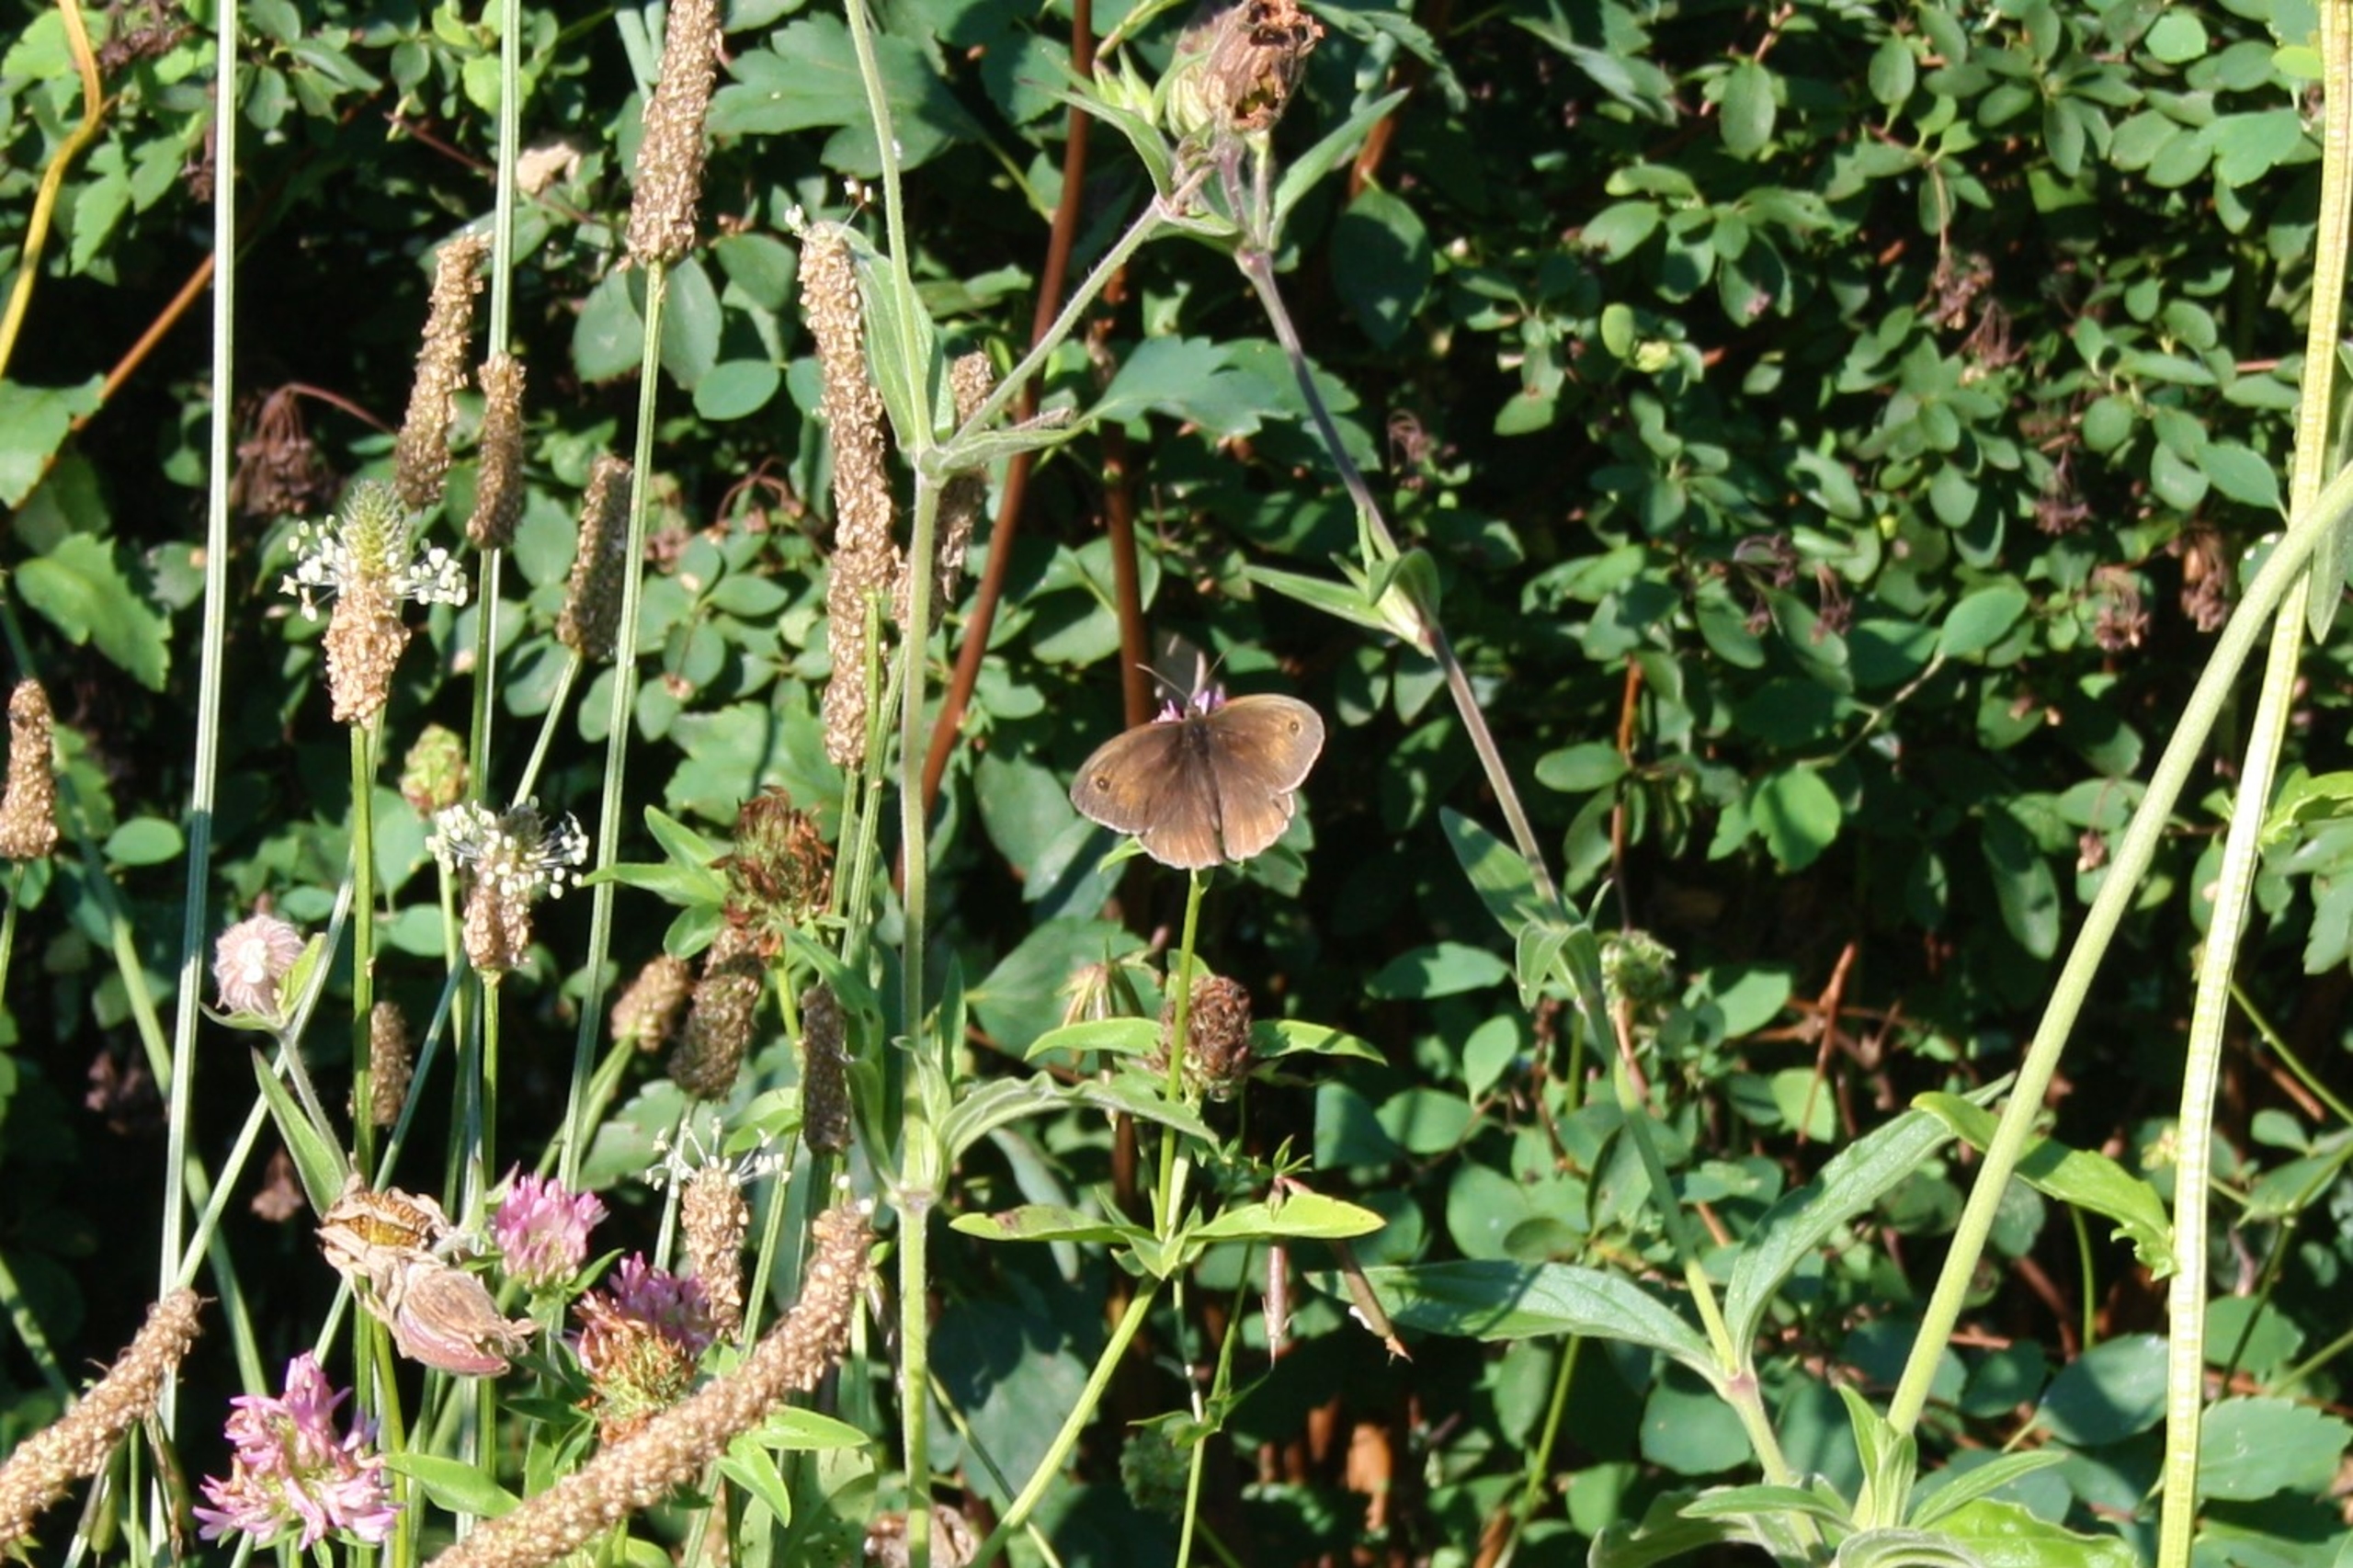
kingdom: Animalia
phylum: Arthropoda
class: Insecta
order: Lepidoptera
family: Nymphalidae
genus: Maniola
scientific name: Maniola jurtina
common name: Græsrandøje
